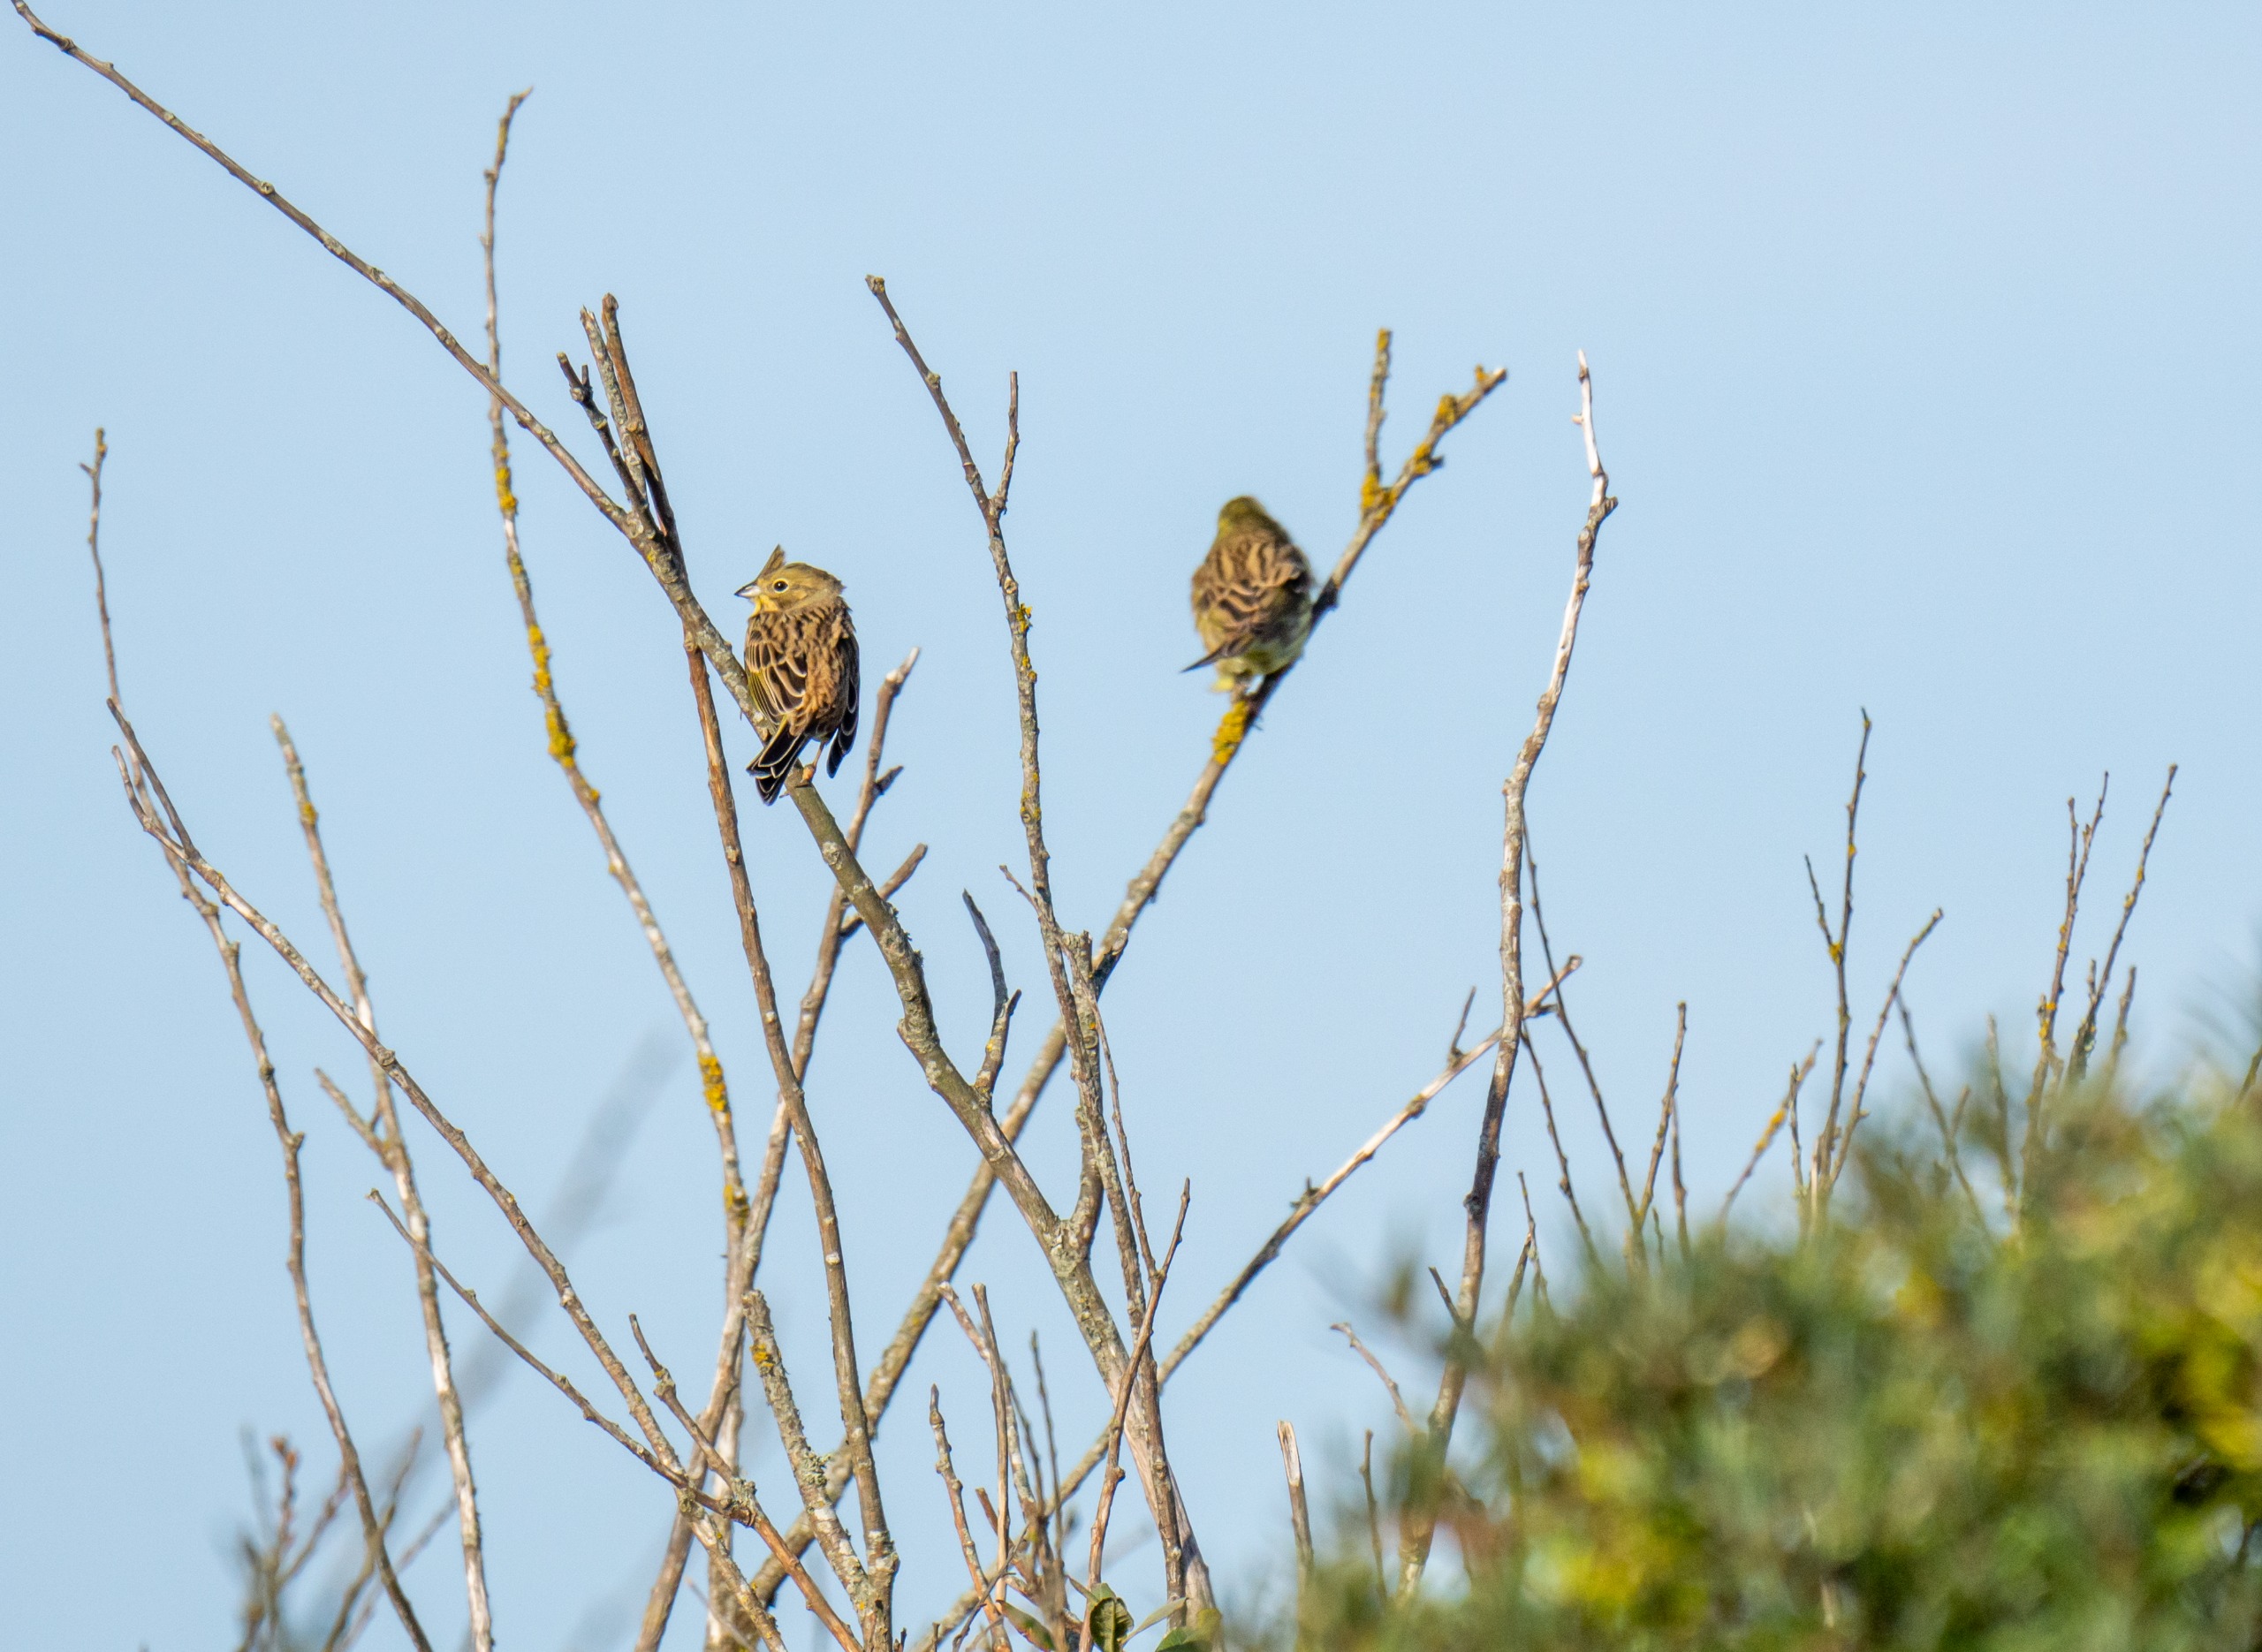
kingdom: Animalia
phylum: Chordata
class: Aves
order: Passeriformes
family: Emberizidae
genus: Emberiza
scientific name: Emberiza citrinella
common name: Gulspurv
